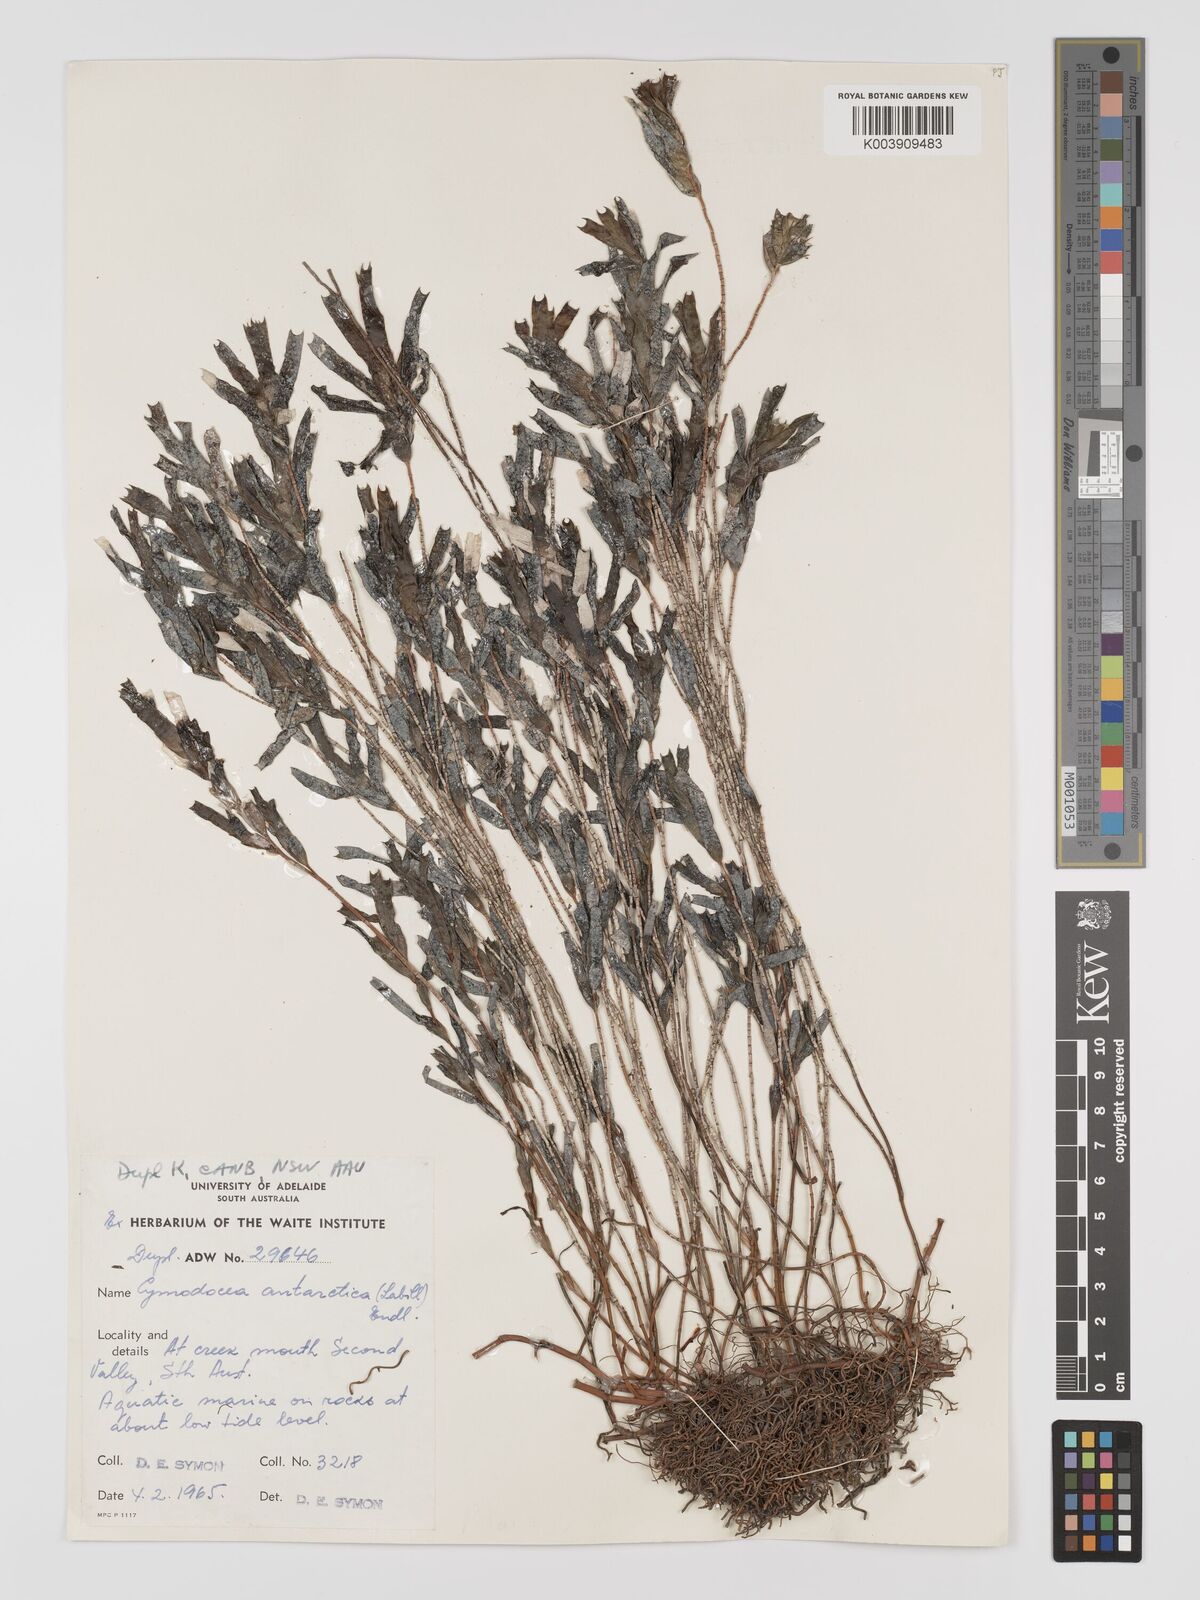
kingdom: Plantae
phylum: Tracheophyta
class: Liliopsida
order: Alismatales
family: Cymodoceaceae
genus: Amphibolis
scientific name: Amphibolis antarctica
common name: Species code: aa
